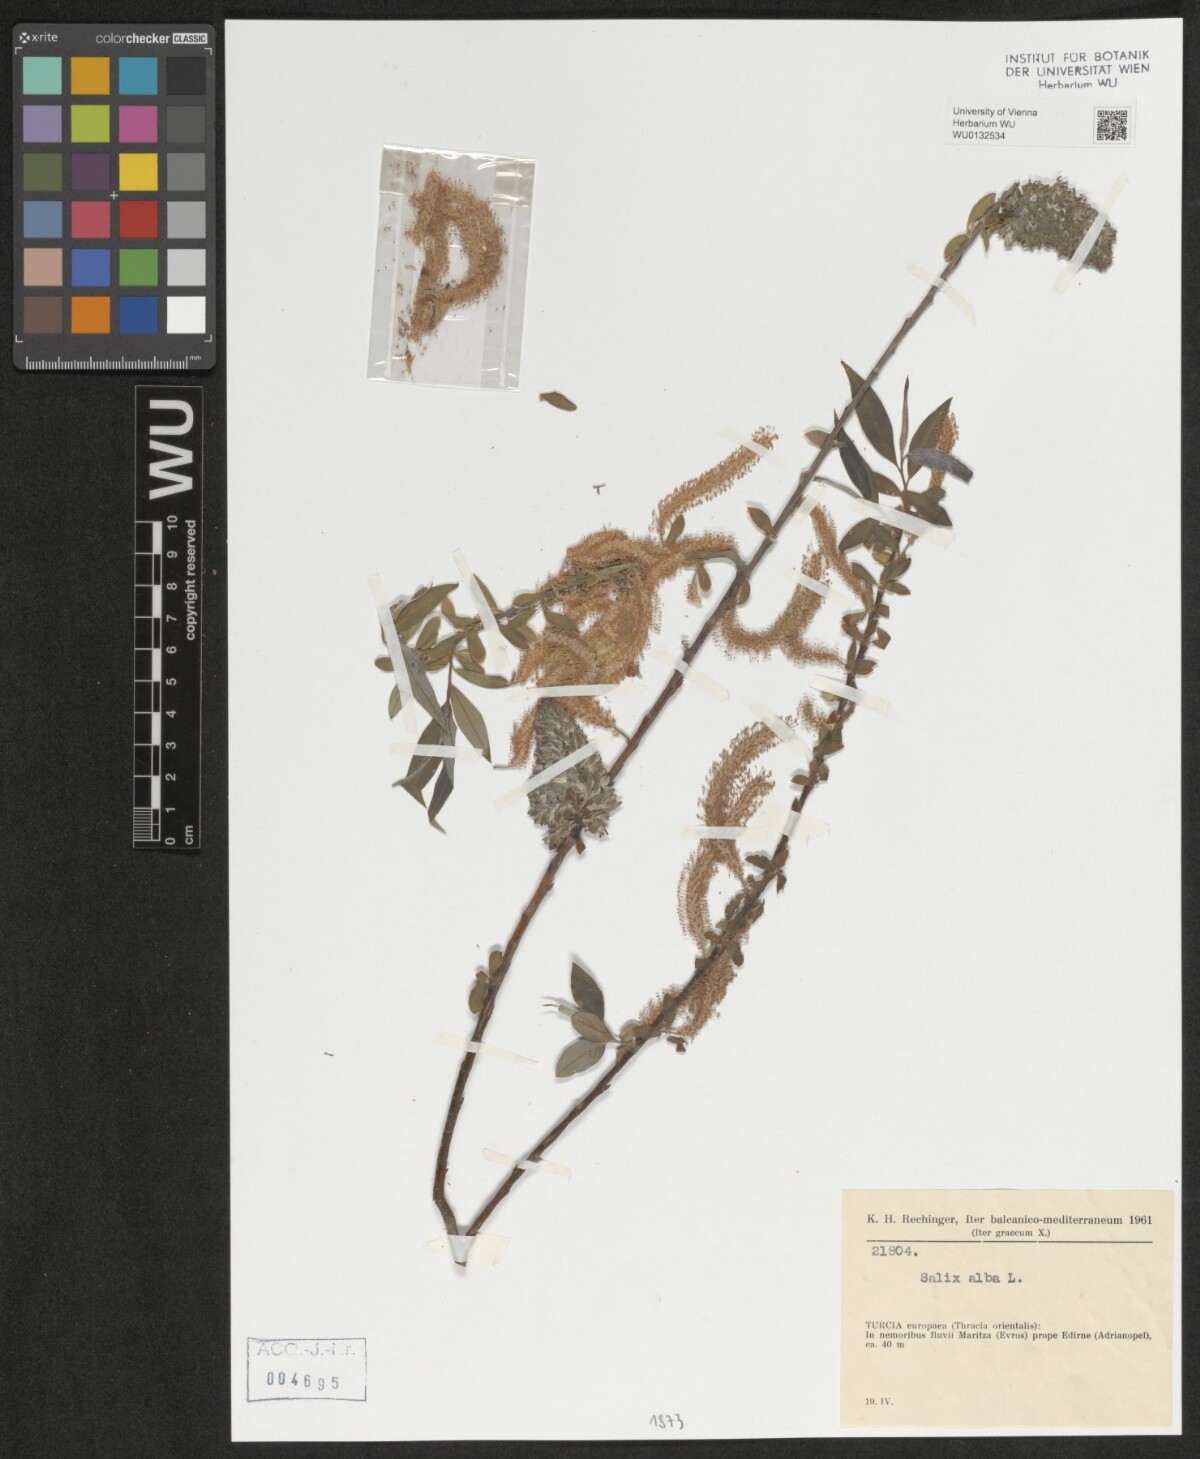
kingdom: Plantae
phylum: Tracheophyta
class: Magnoliopsida
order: Malpighiales
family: Salicaceae
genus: Salix
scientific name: Salix alba
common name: White willow
